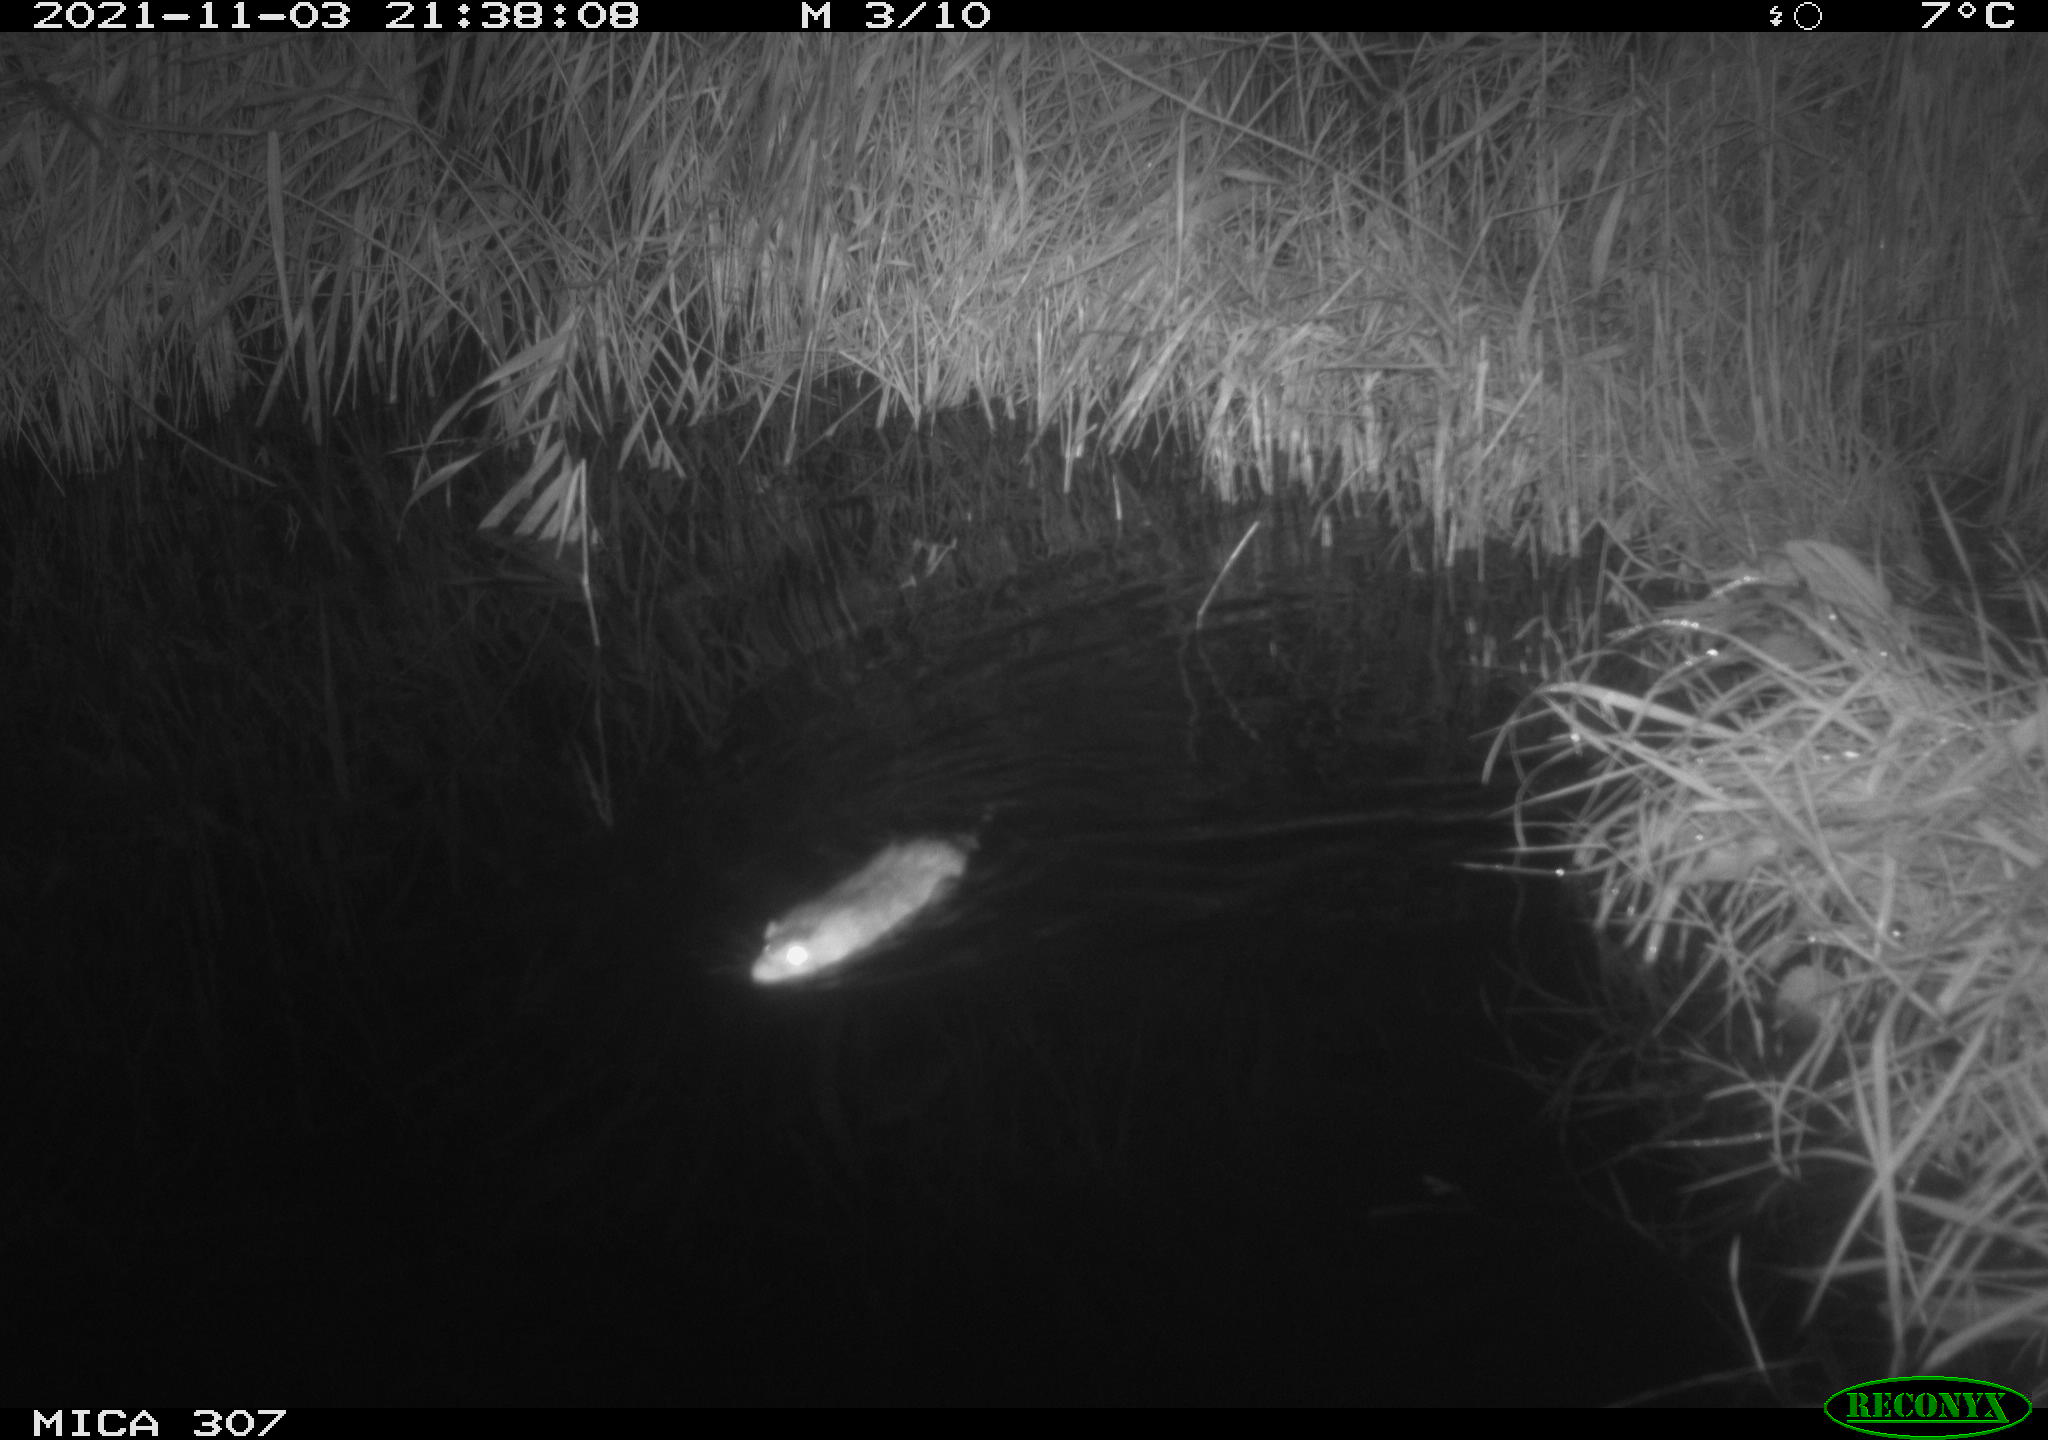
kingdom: Animalia
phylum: Chordata
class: Mammalia
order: Rodentia
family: Muridae
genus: Rattus
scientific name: Rattus norvegicus
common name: Brown rat
